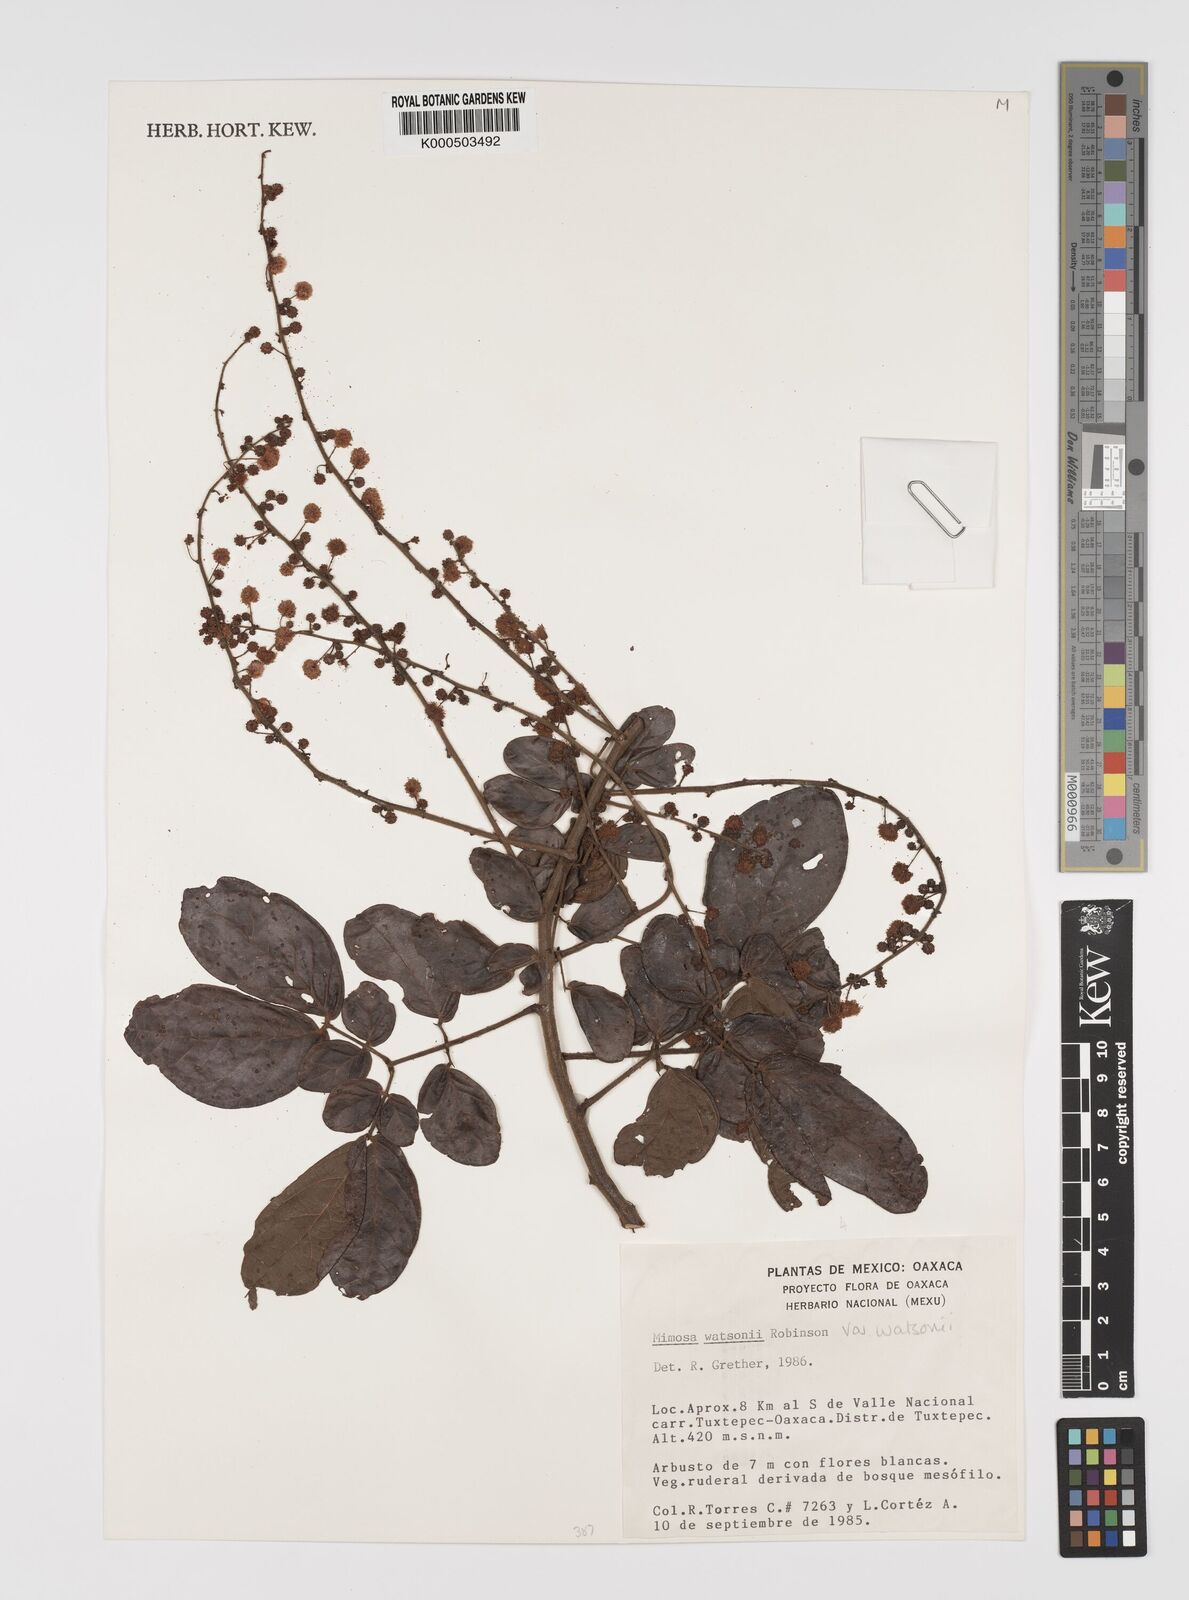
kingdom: Plantae
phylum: Tracheophyta
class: Magnoliopsida
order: Fabales
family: Fabaceae
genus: Mimosa
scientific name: Mimosa watsonii
